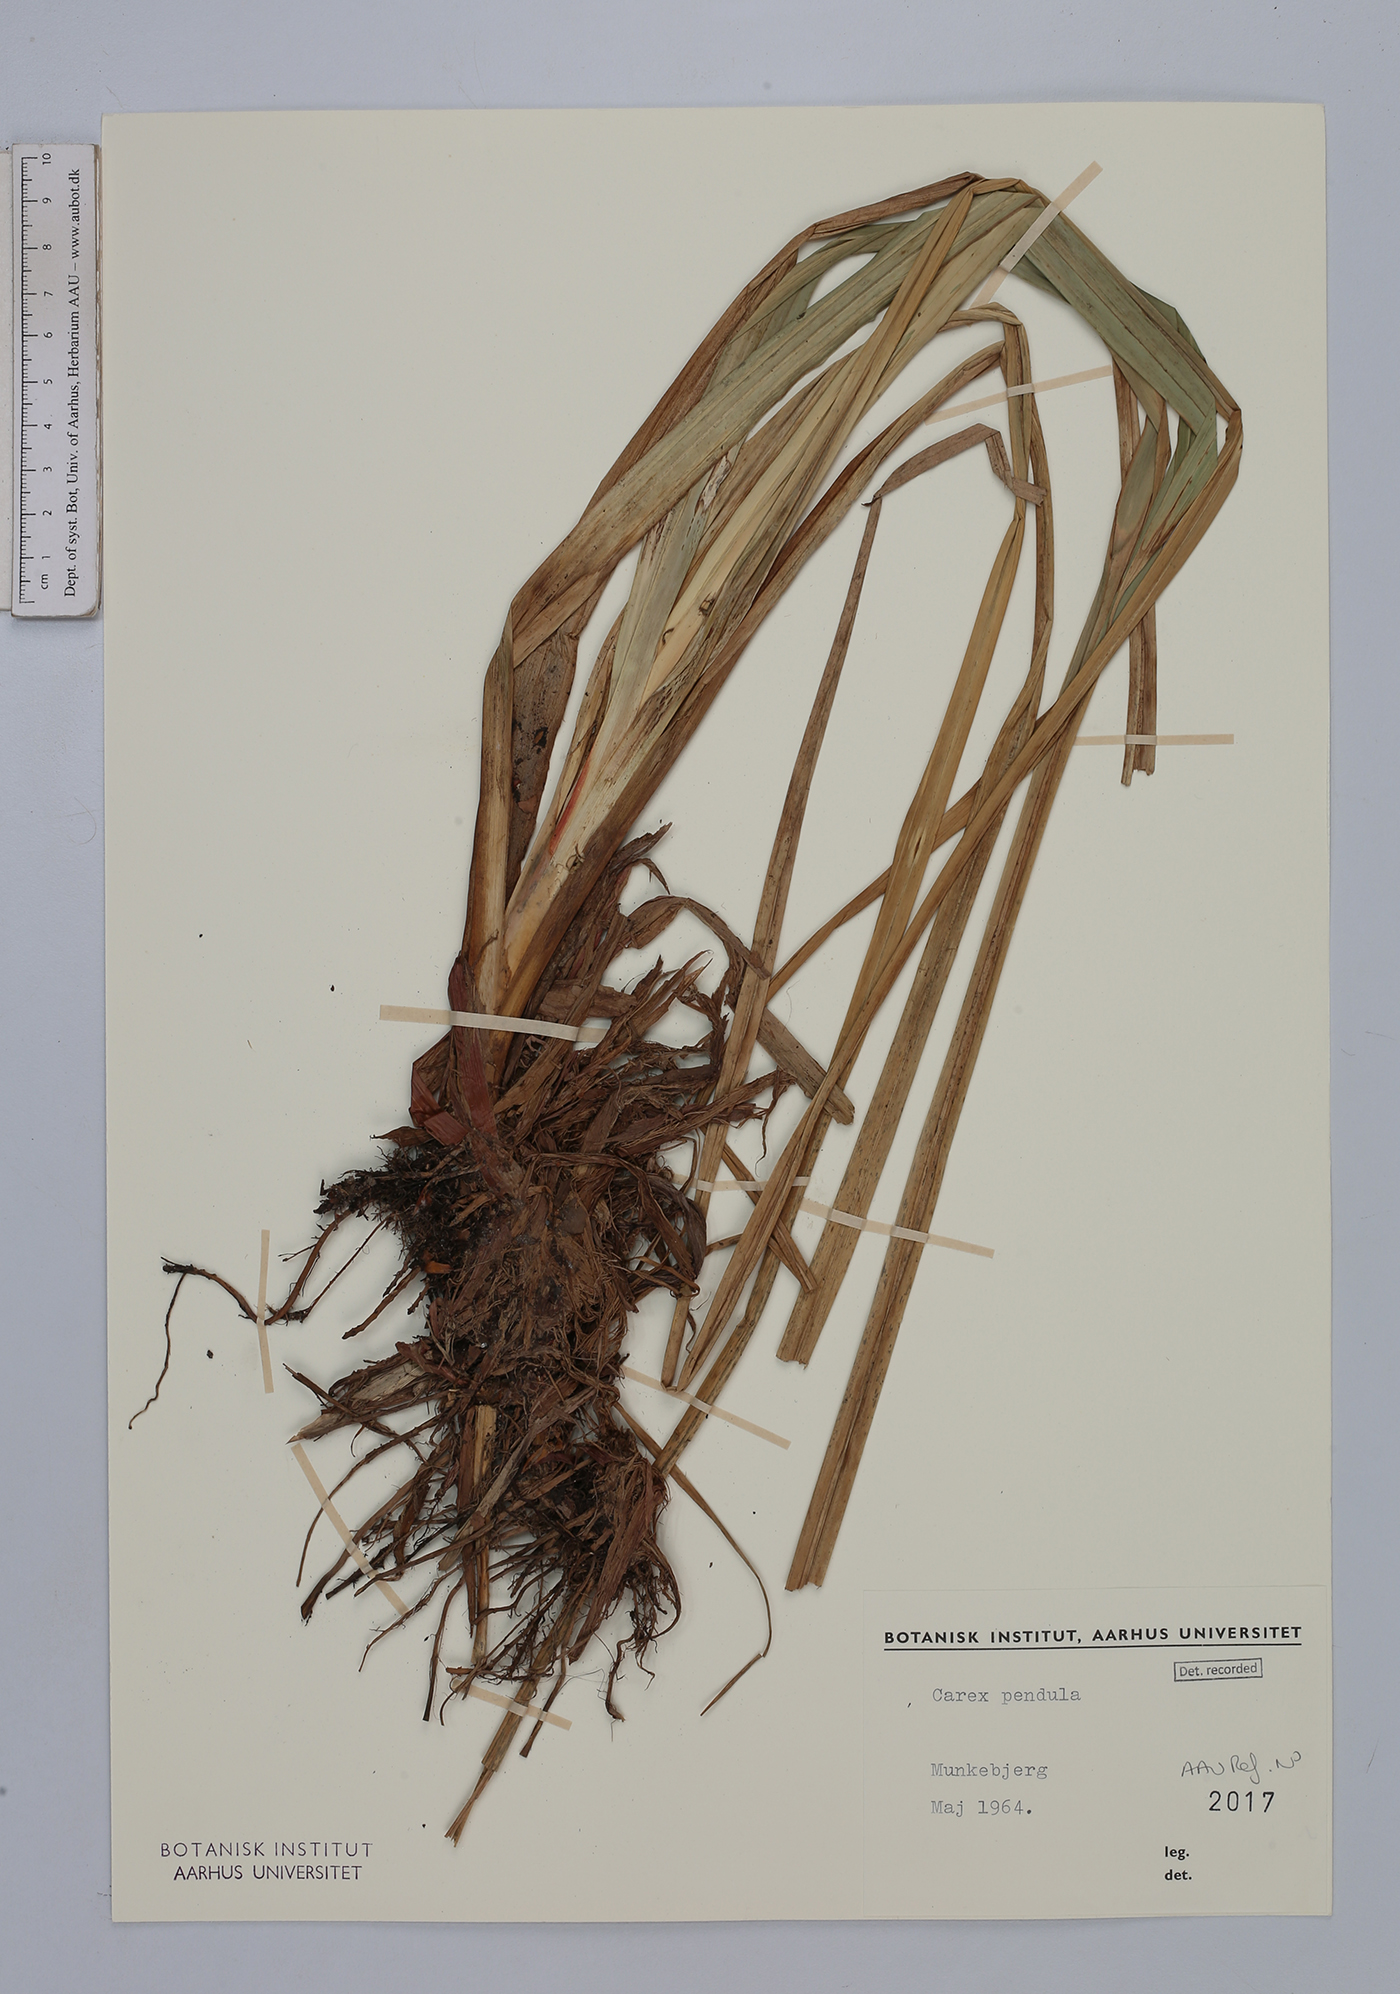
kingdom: Plantae
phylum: Tracheophyta
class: Liliopsida
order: Poales
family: Cyperaceae
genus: Carex
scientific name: Carex pendula
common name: Pendulous sedge
